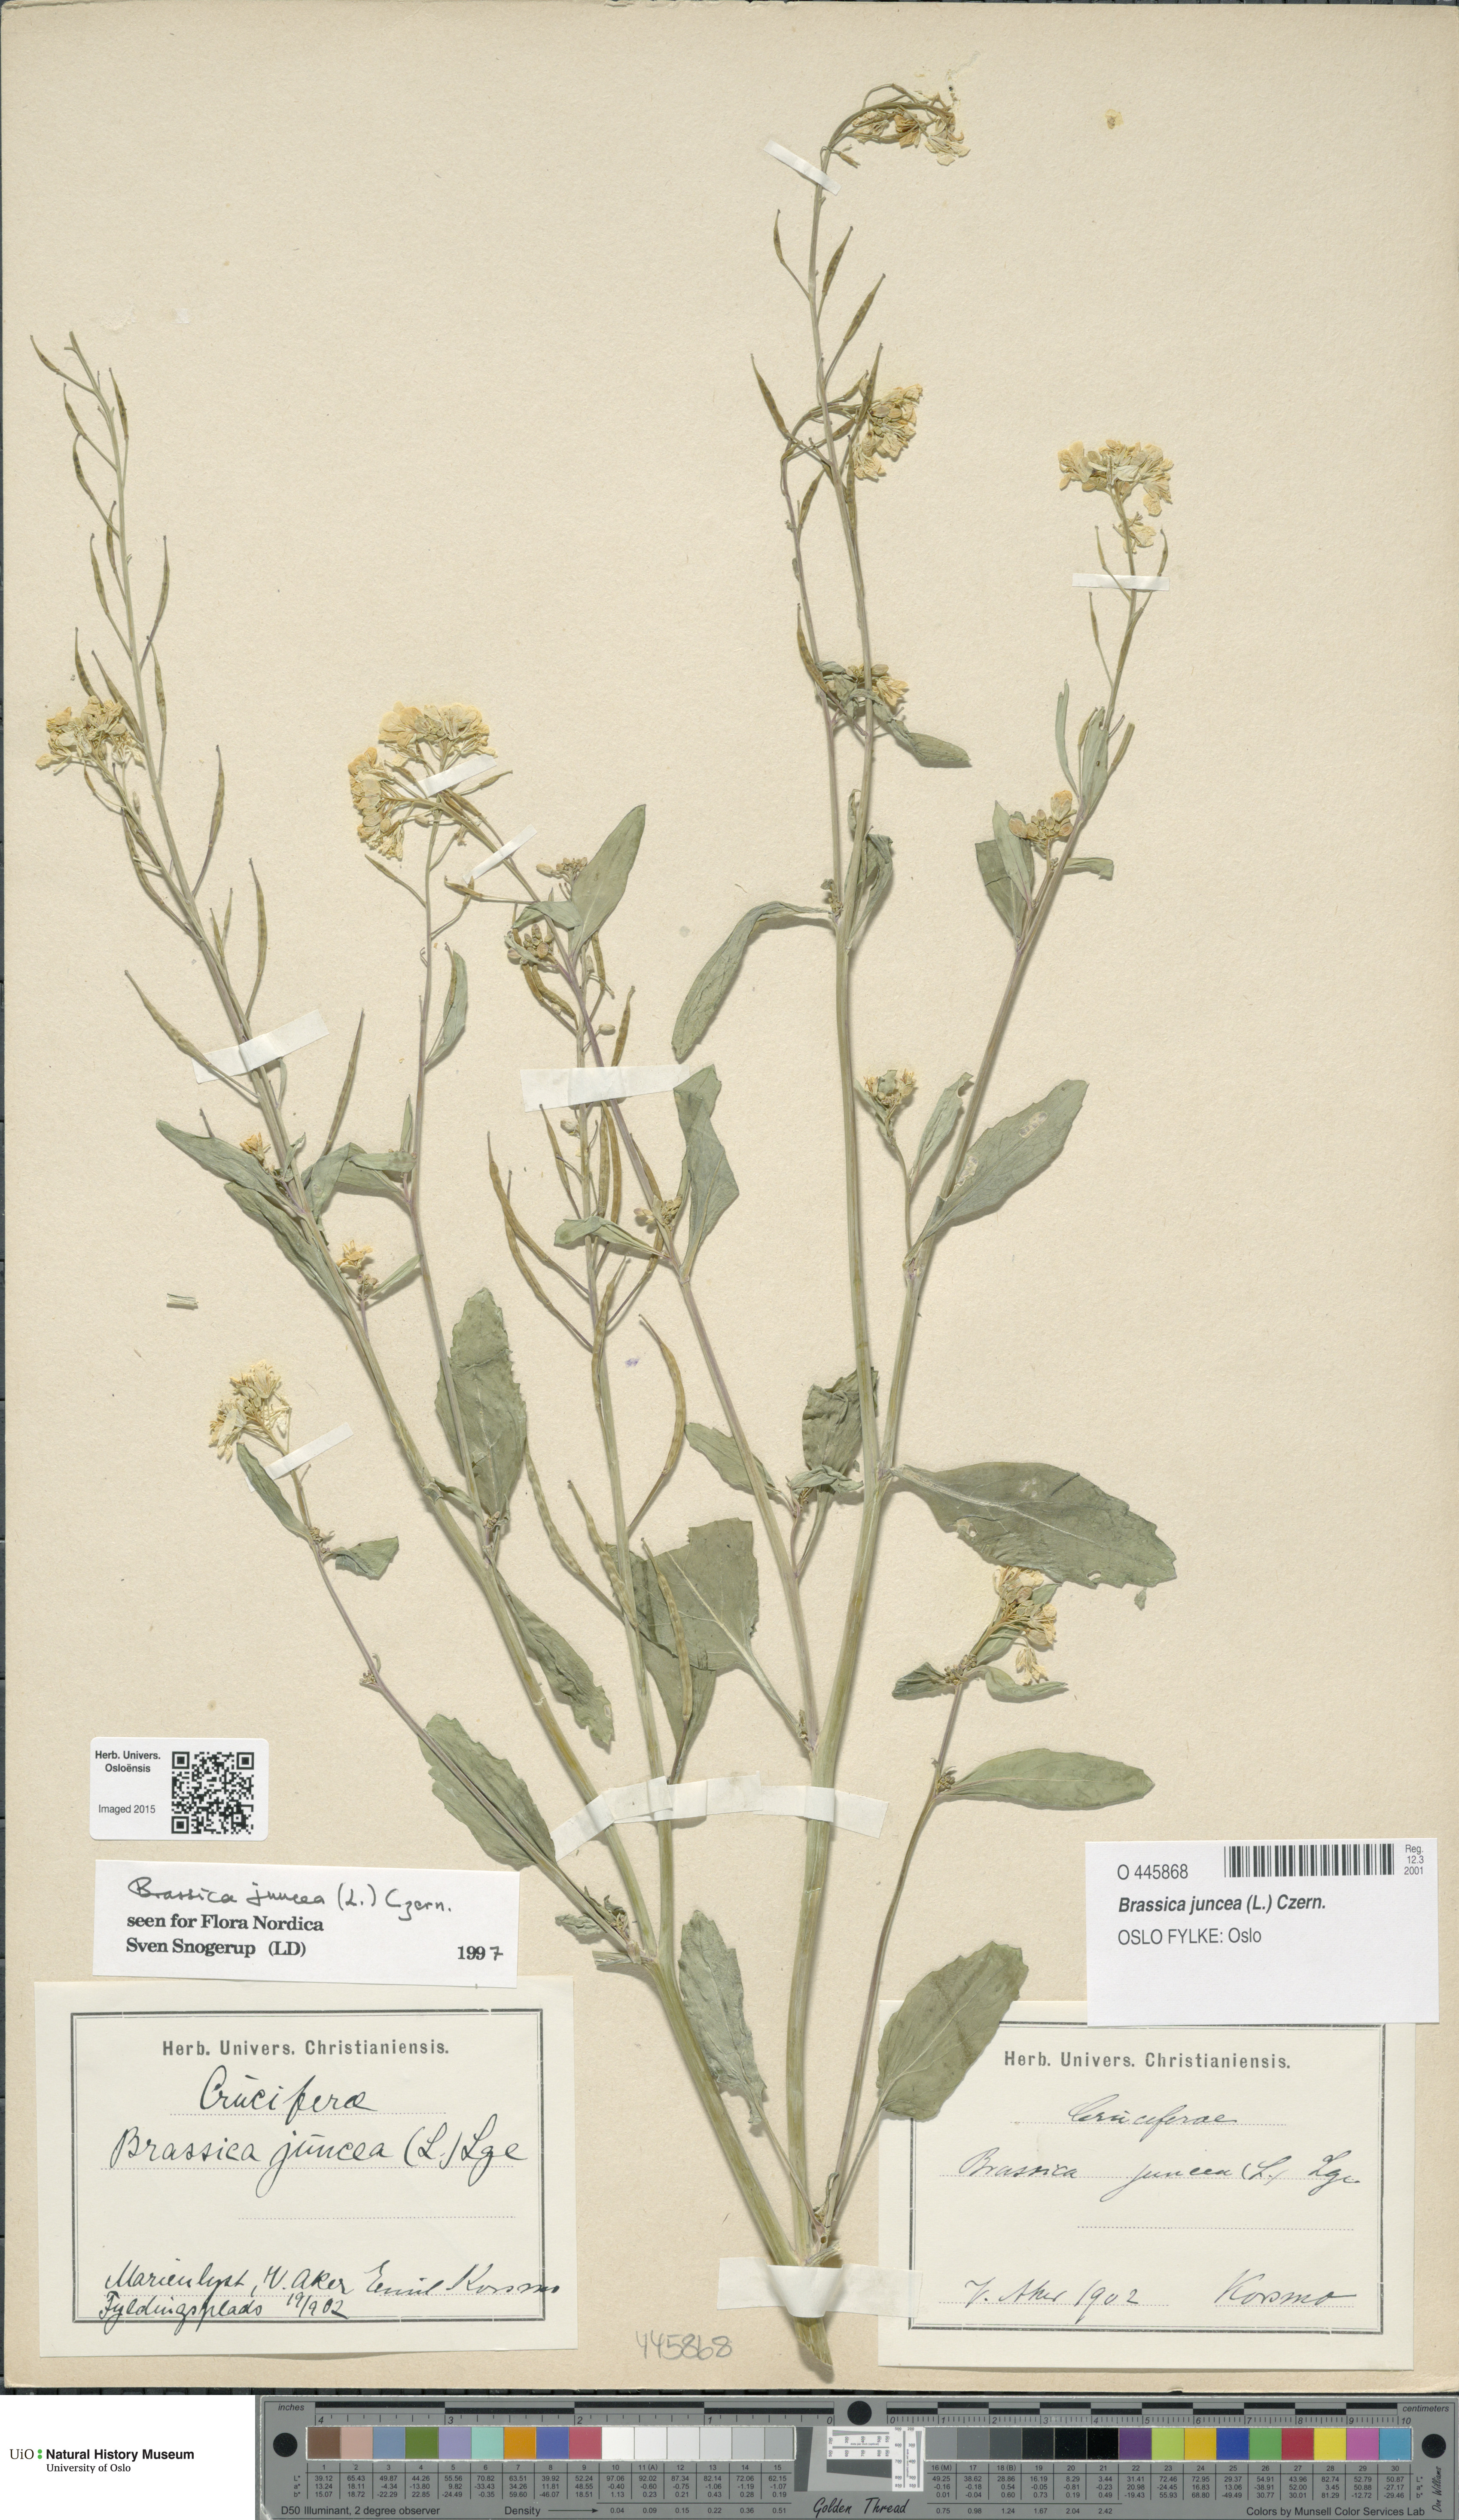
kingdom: Plantae
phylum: Tracheophyta
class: Magnoliopsida
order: Brassicales
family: Brassicaceae
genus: Brassica
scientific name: Brassica juncea
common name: Brown mustard
